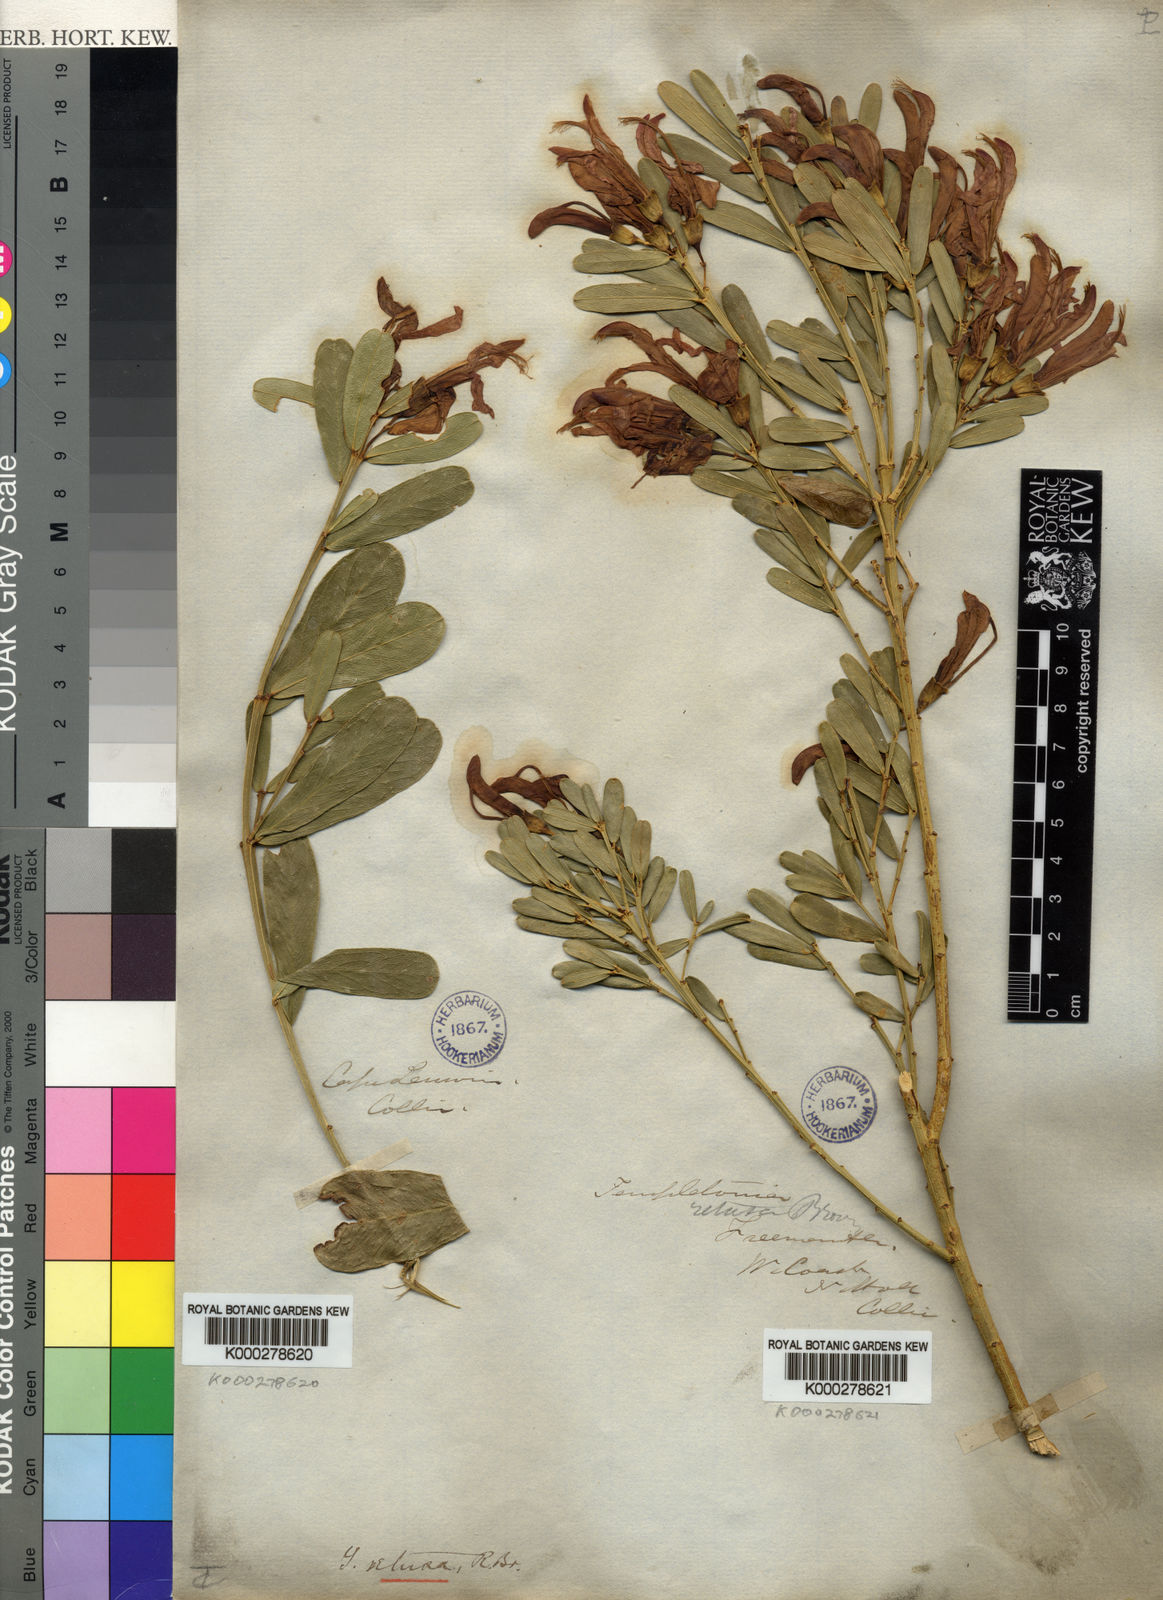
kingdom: Plantae
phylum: Tracheophyta
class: Magnoliopsida
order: Fabales
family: Fabaceae
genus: Templetonia
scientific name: Templetonia retusa
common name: Cockies'-tongue
